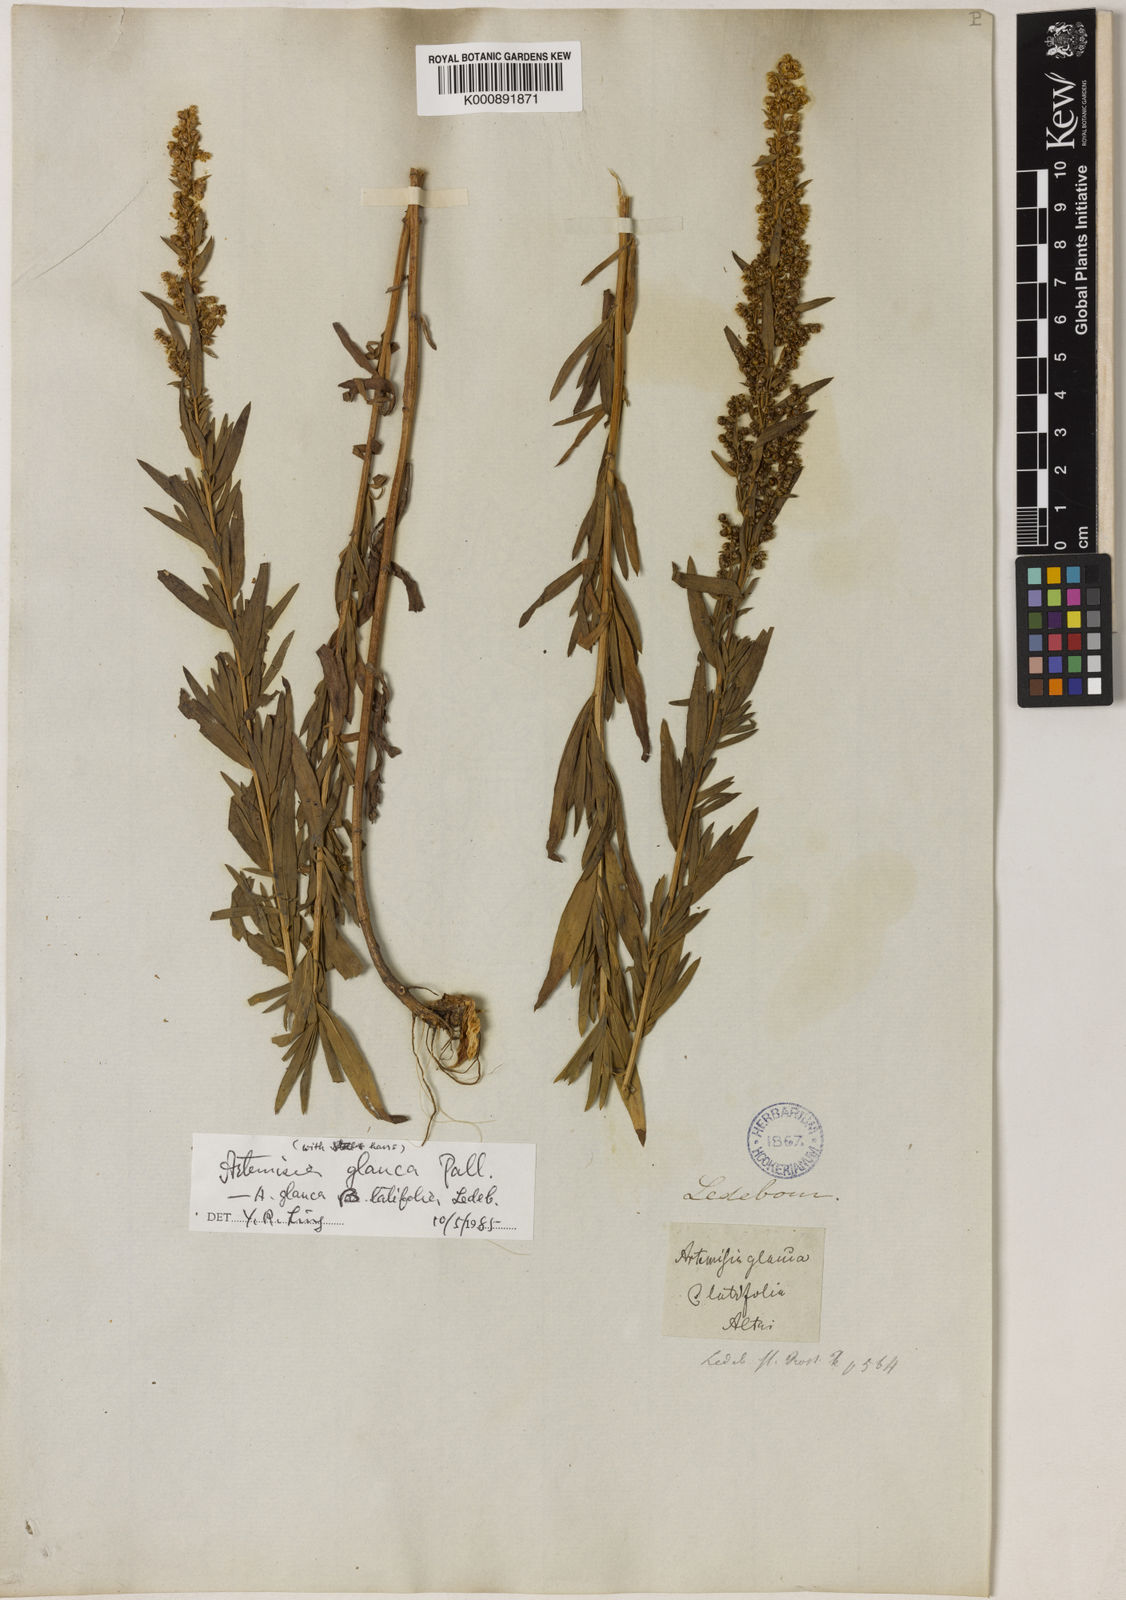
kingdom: Plantae
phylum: Tracheophyta
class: Magnoliopsida
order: Asterales
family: Asteraceae
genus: Artemisia
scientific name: Artemisia
